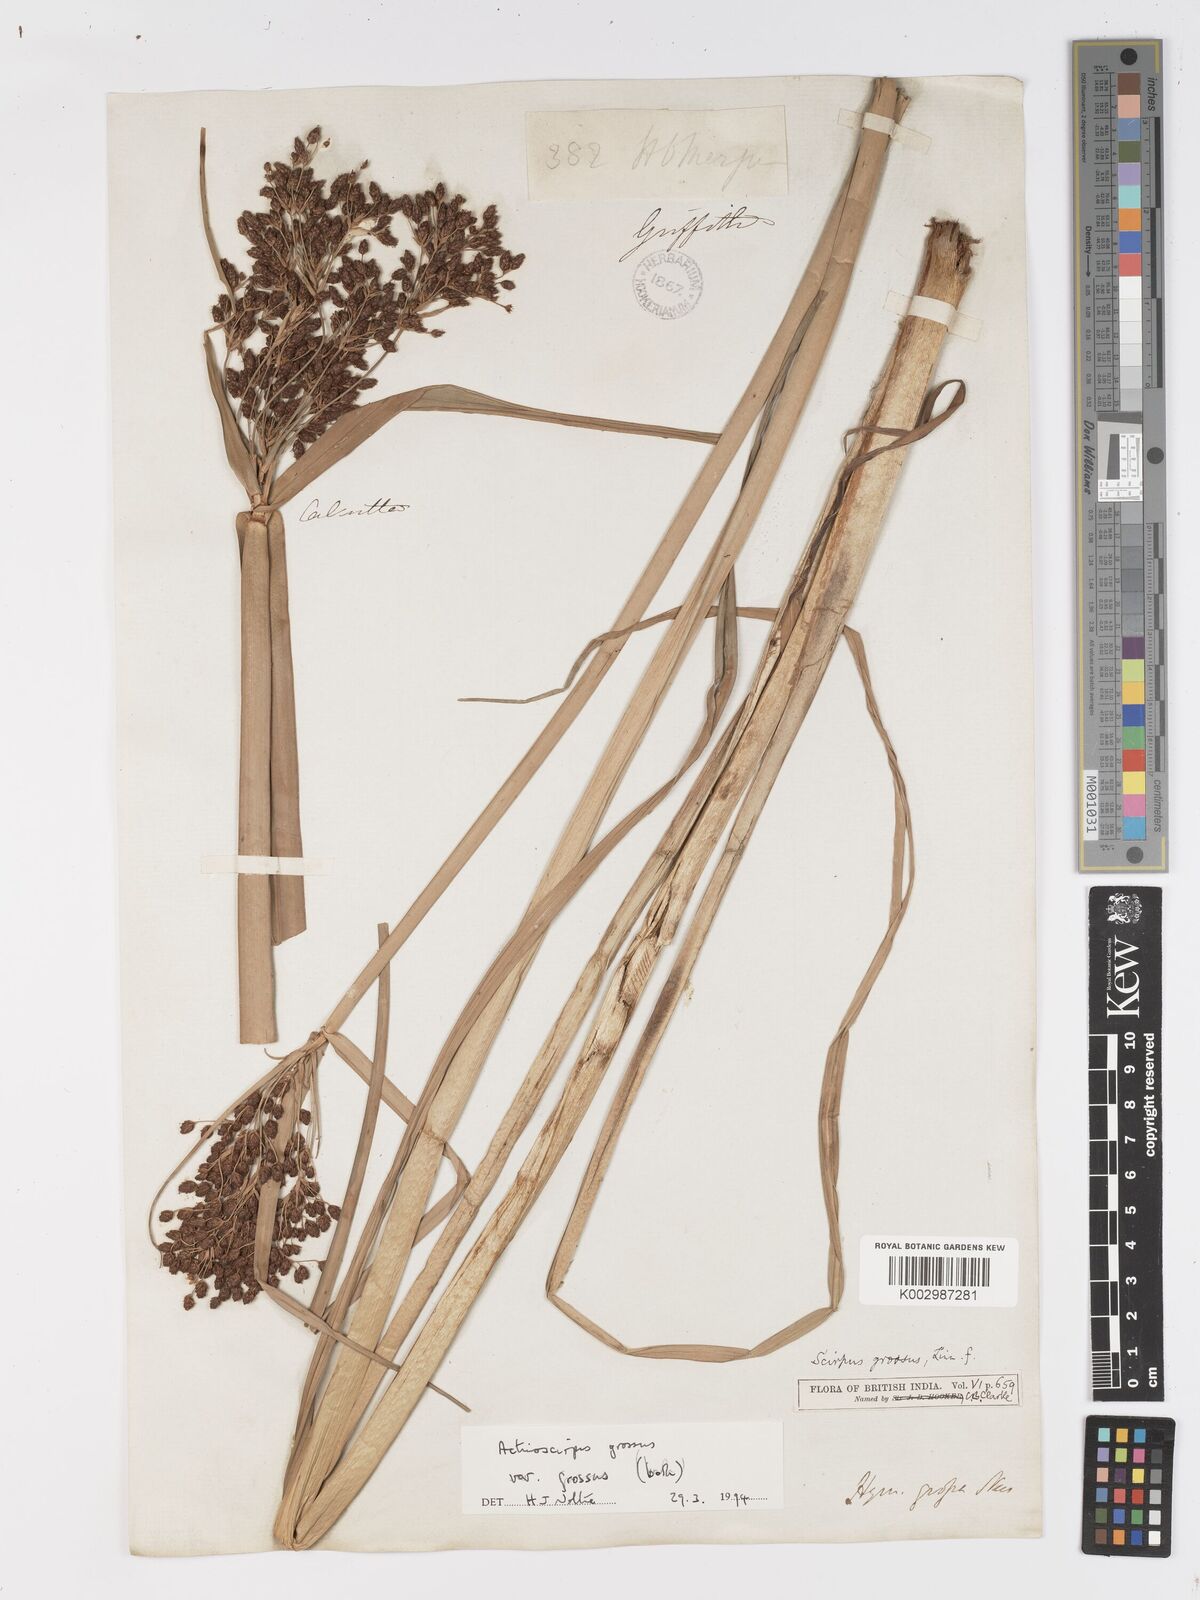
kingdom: Plantae
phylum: Tracheophyta
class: Liliopsida
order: Poales
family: Cyperaceae
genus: Actinoscirpus
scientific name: Actinoscirpus grossus
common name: Giant bur rush
